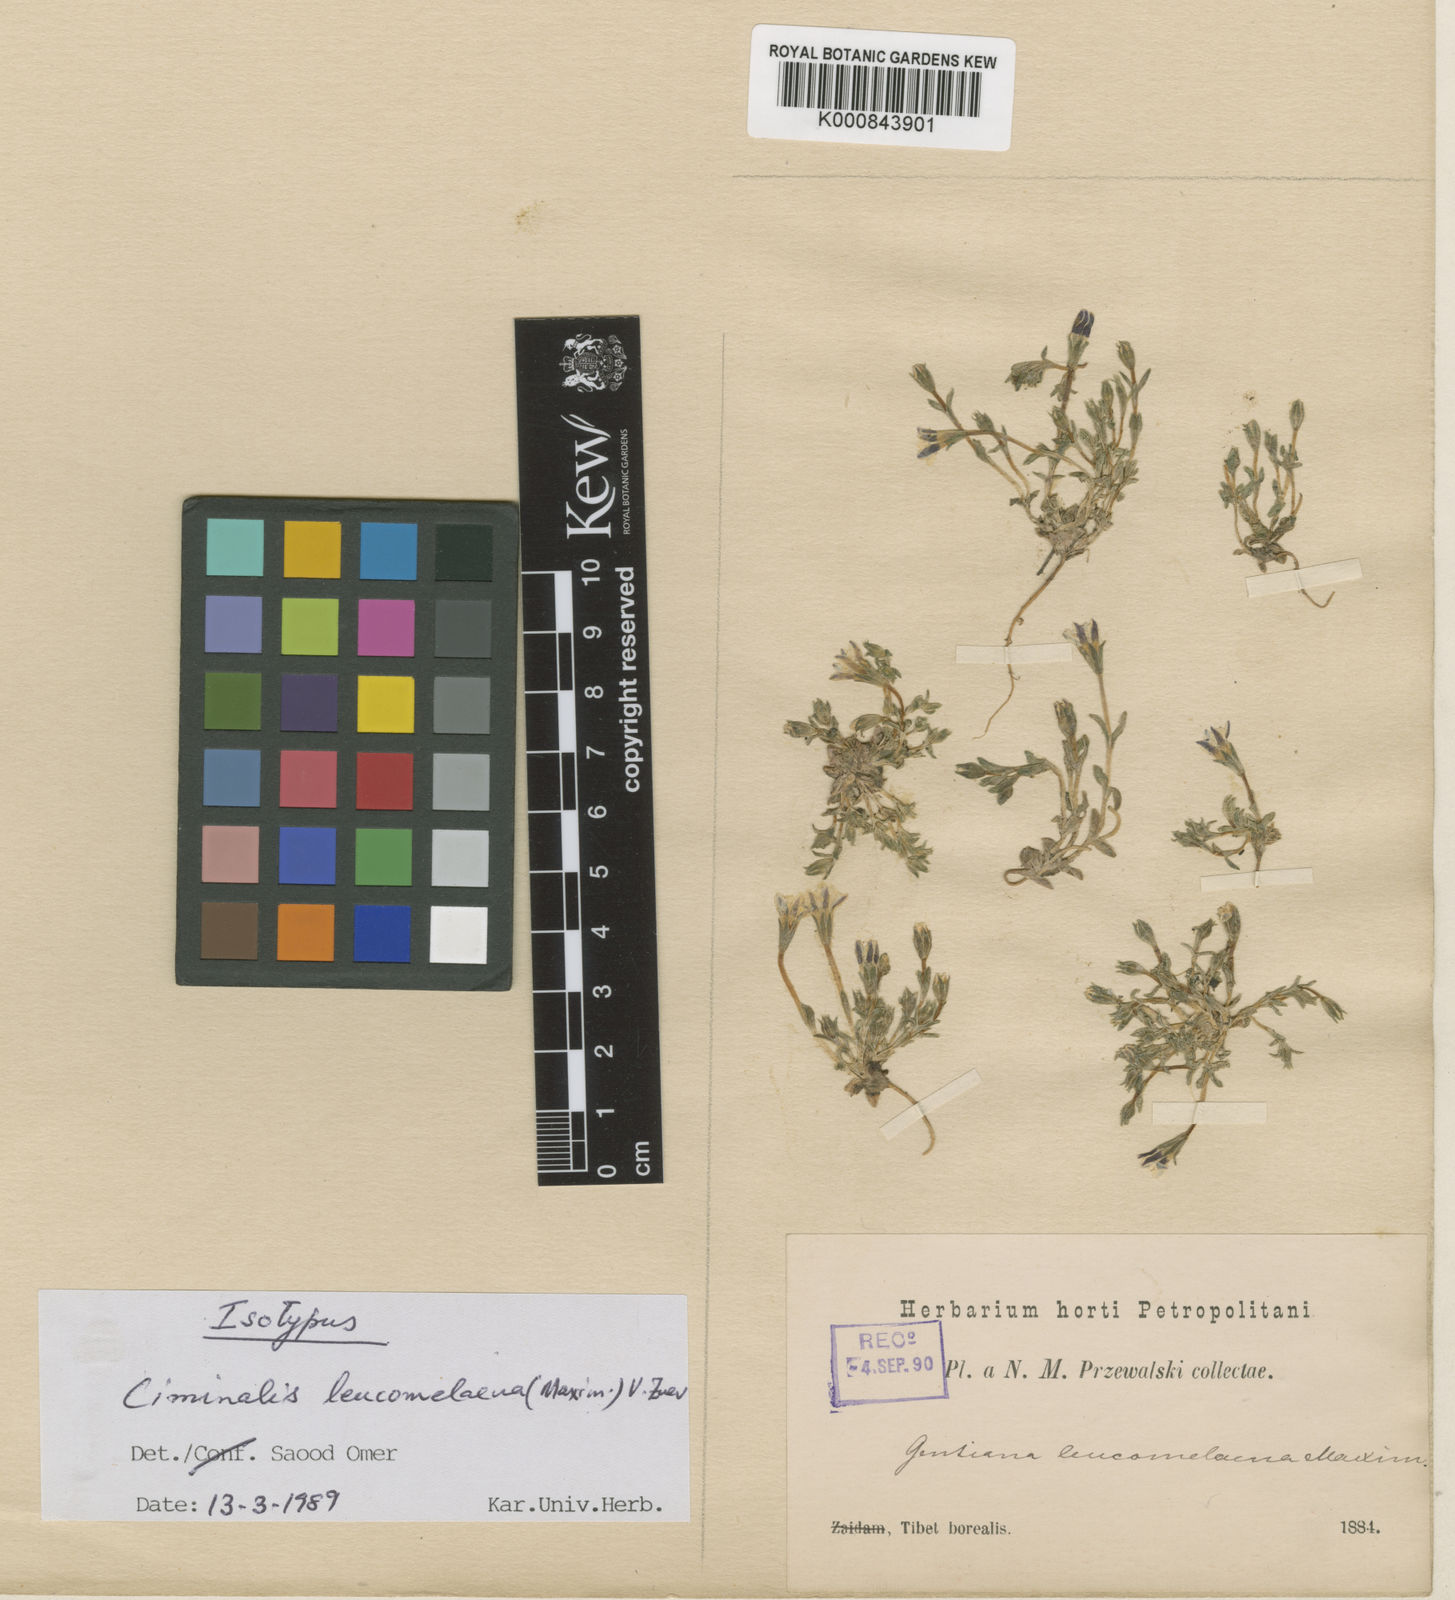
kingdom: Plantae
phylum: Tracheophyta
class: Magnoliopsida
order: Gentianales
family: Gentianaceae
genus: Gentiana
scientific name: Gentiana leucomelaena
